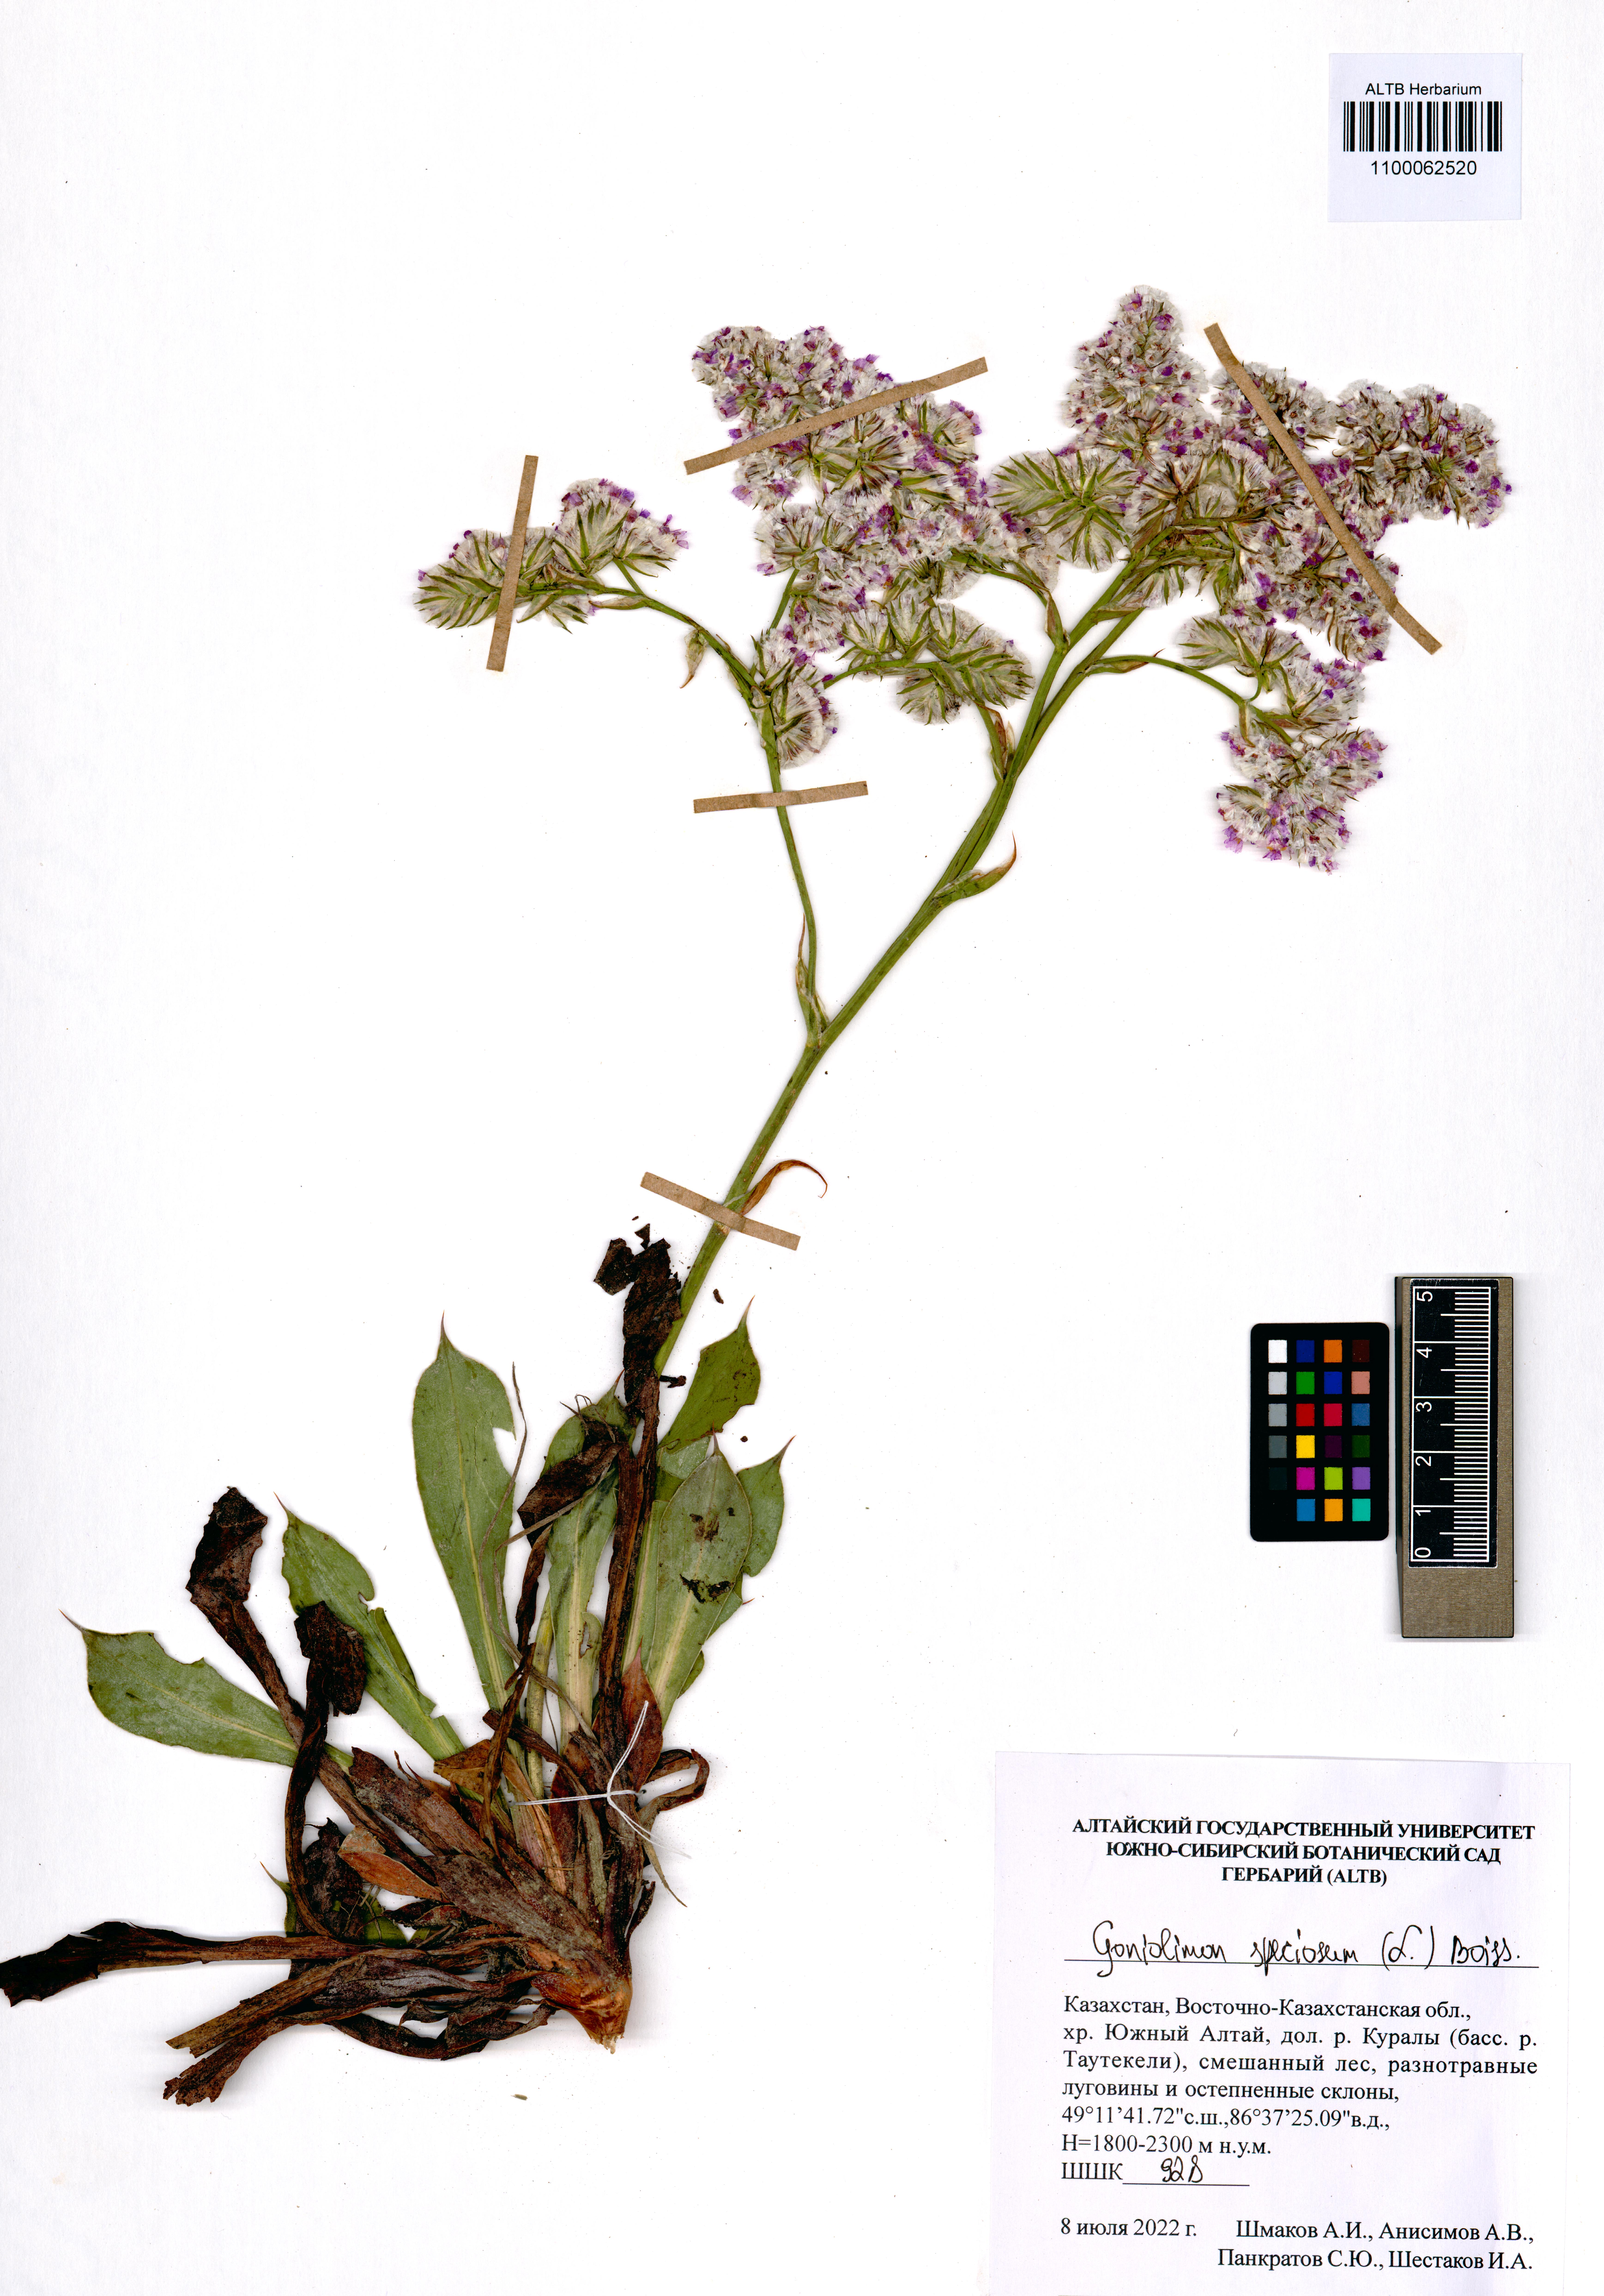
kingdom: Plantae
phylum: Tracheophyta
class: Magnoliopsida
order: Caryophyllales
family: Plumbaginaceae
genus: Goniolimon
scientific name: Goniolimon speciosum
